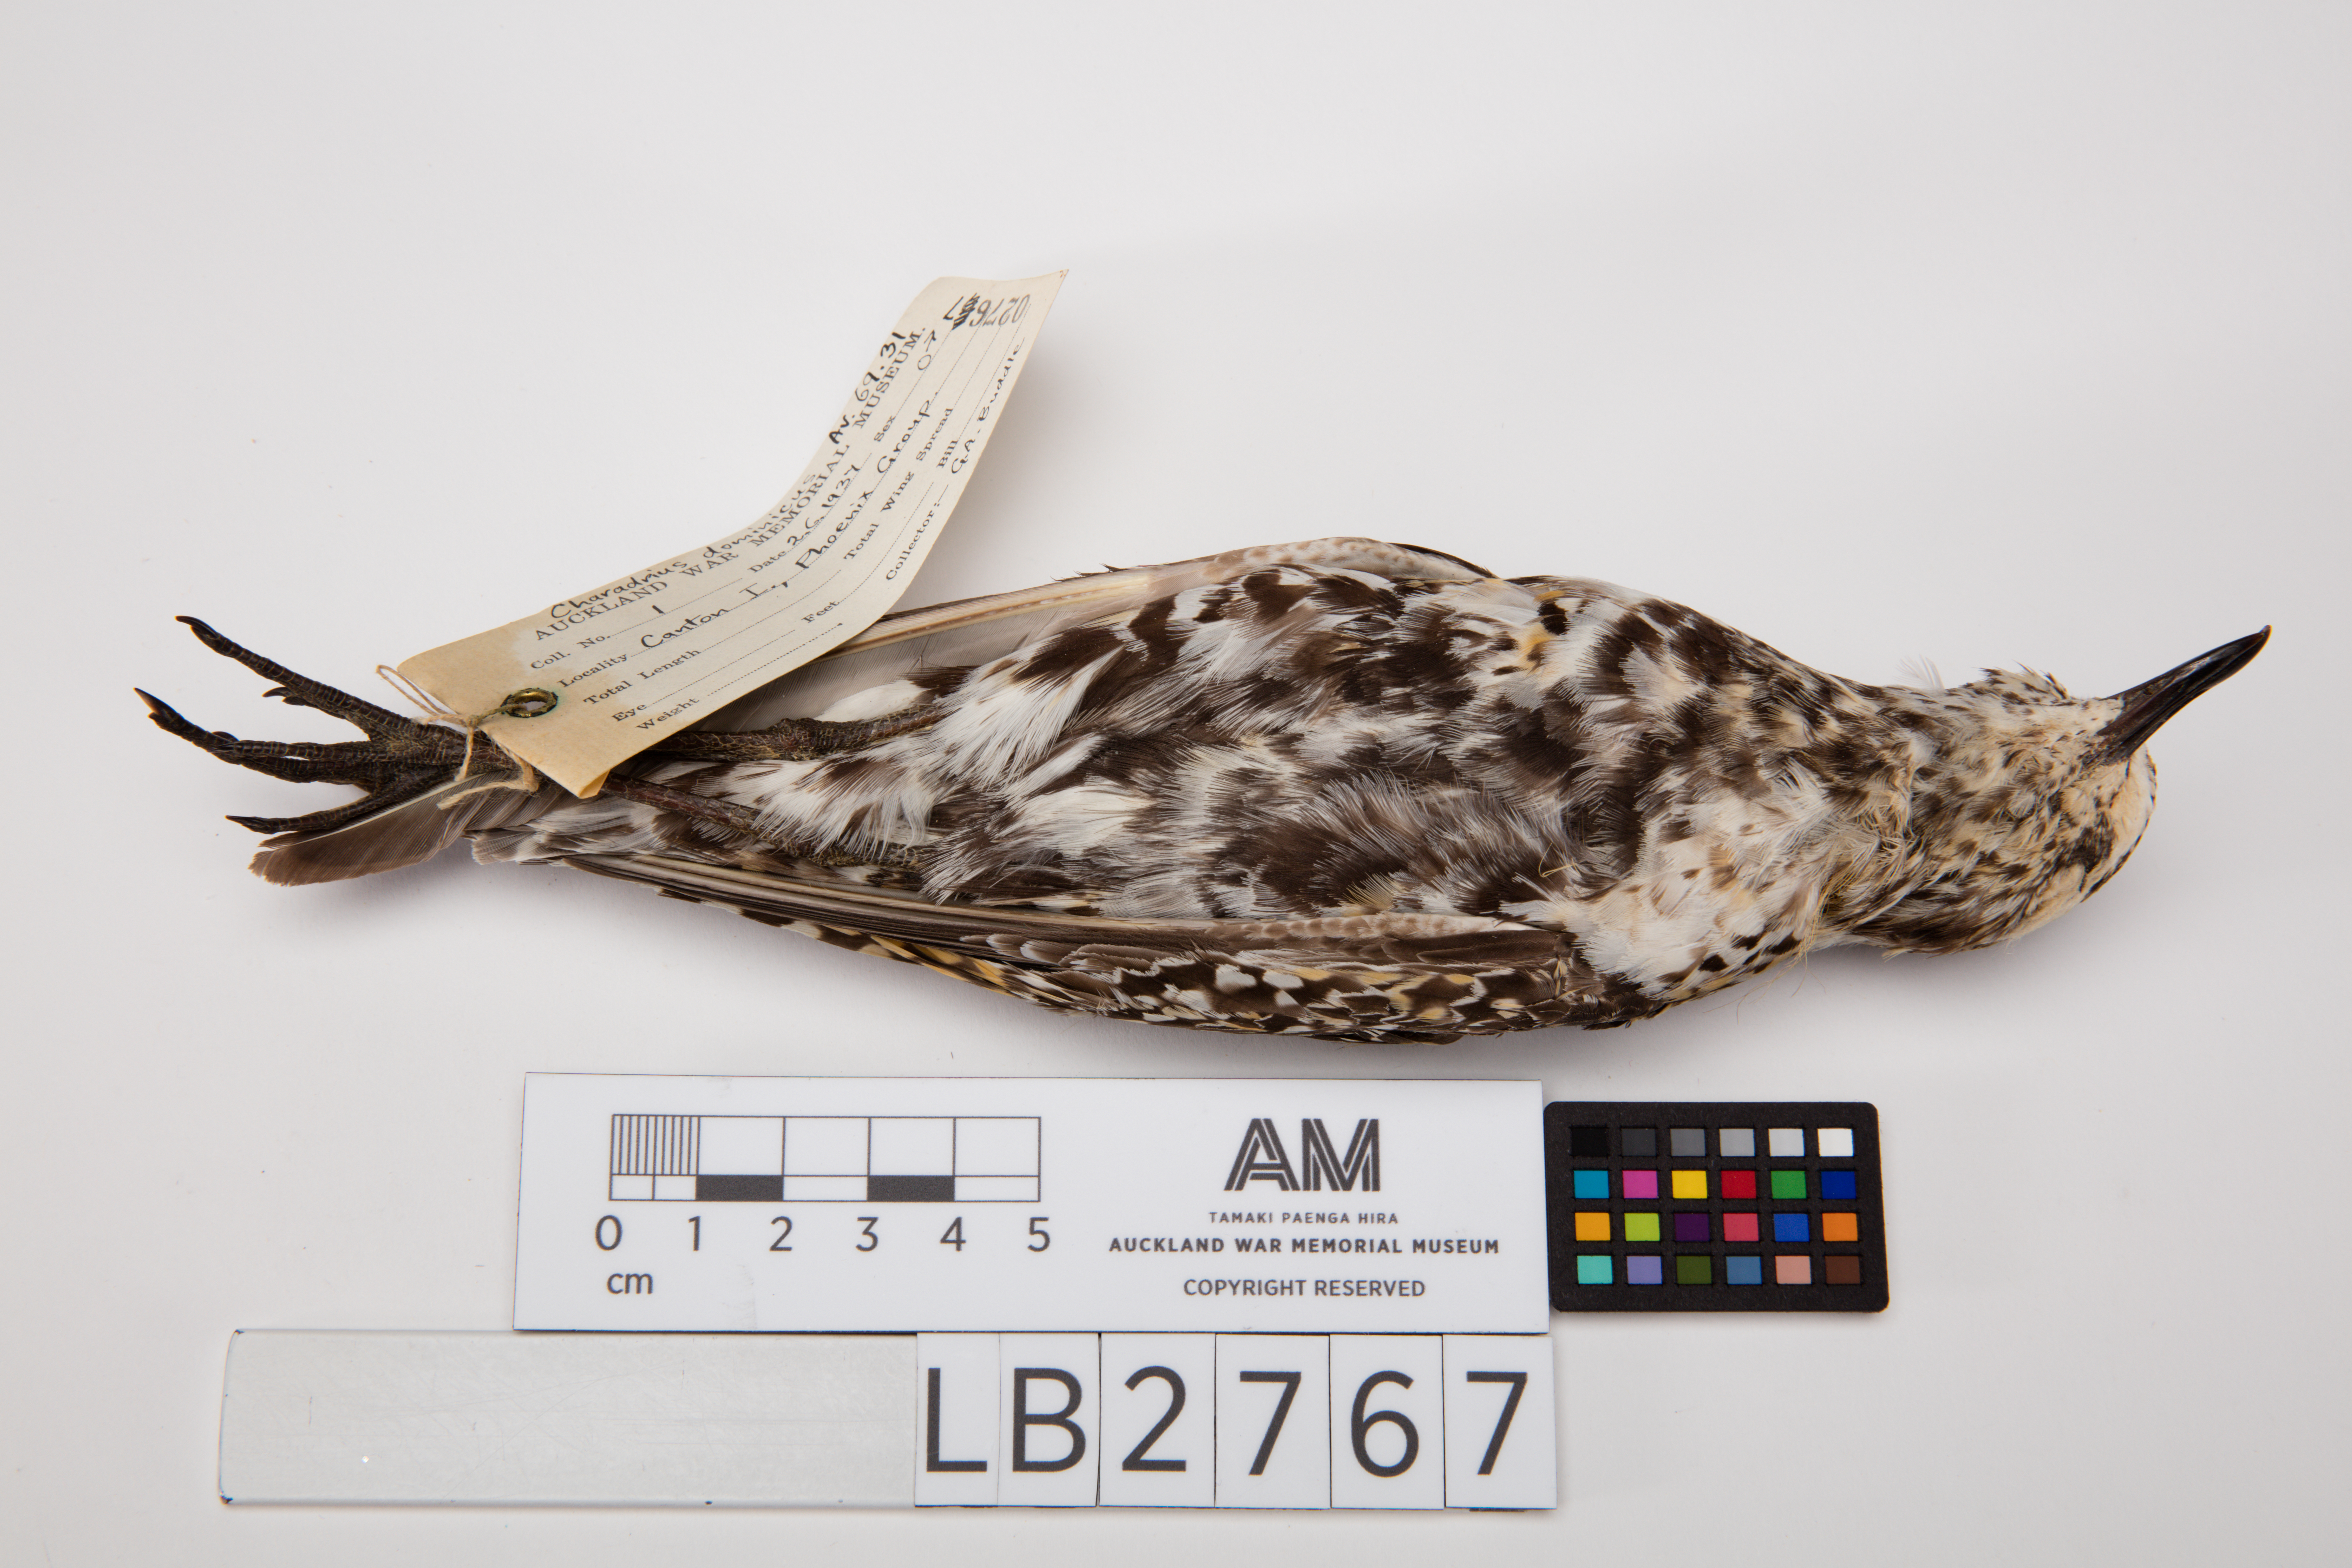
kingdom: Animalia
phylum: Chordata
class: Aves
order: Charadriiformes
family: Charadriidae
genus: Pluvialis
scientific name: Pluvialis fulva
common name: Pacific golden plover
